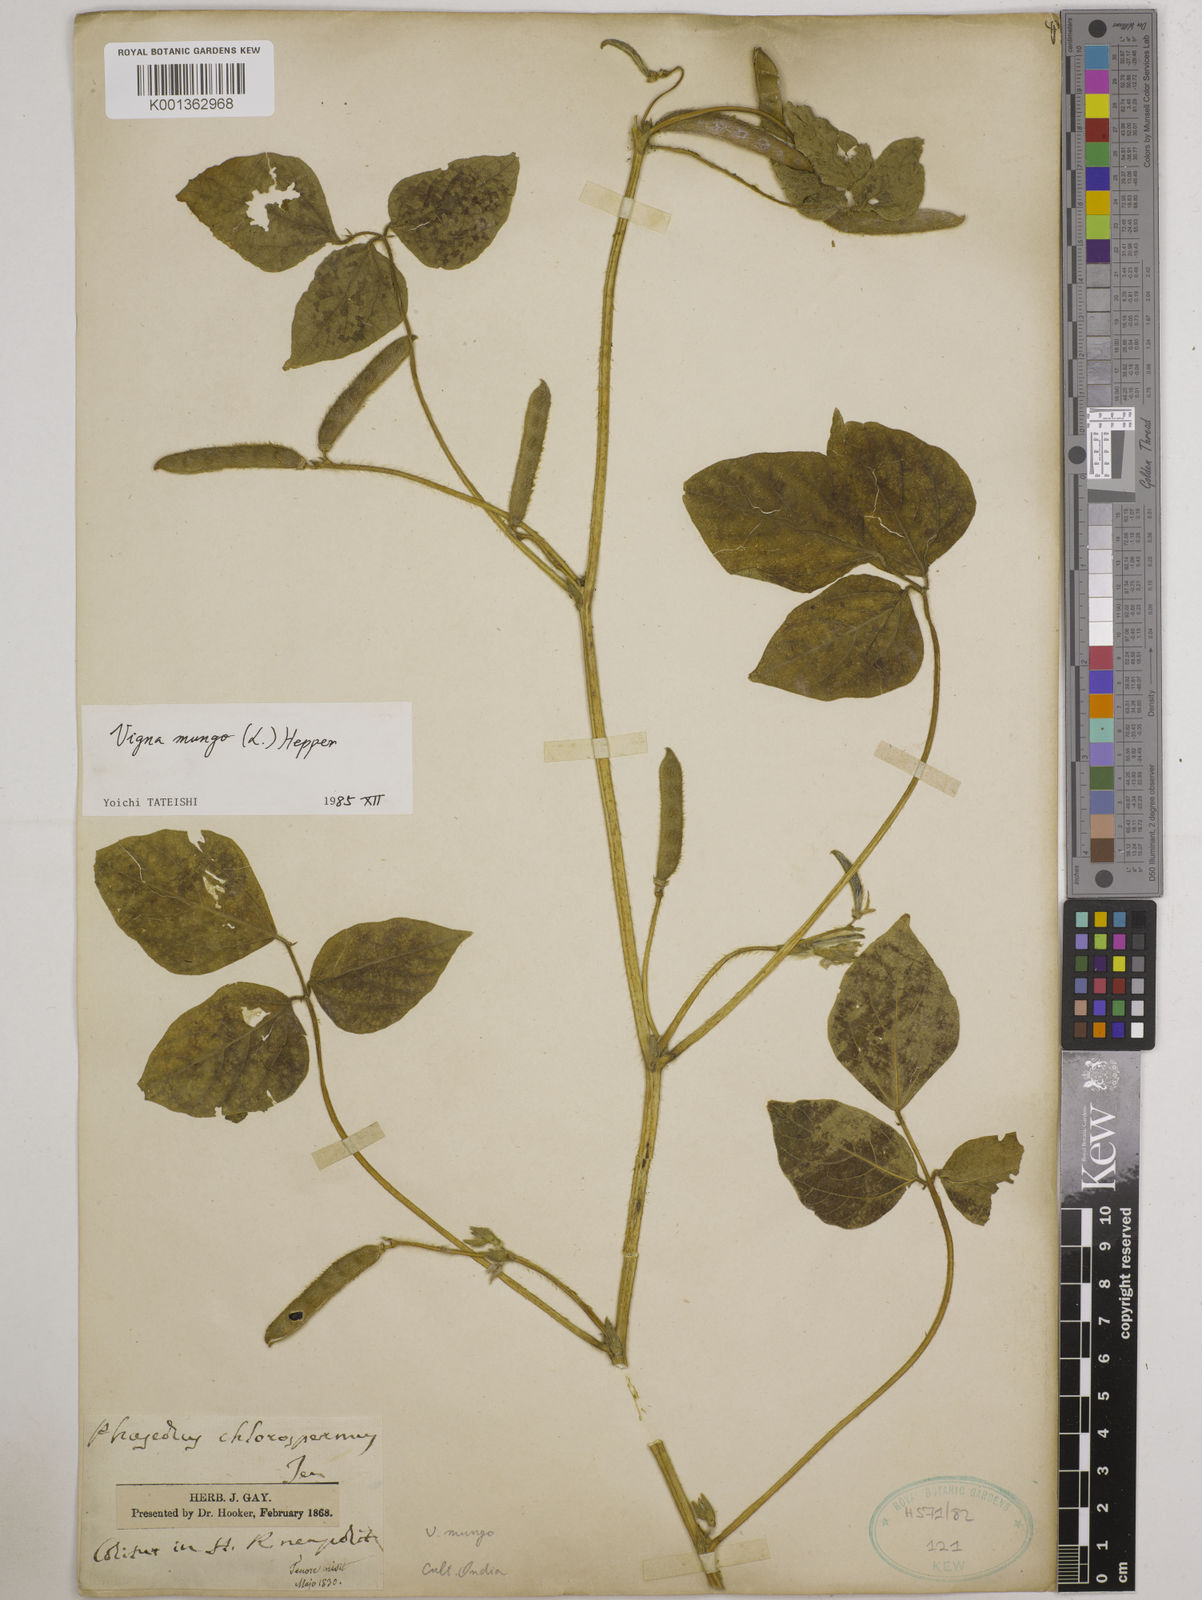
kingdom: Plantae
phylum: Tracheophyta
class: Magnoliopsida
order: Fabales
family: Fabaceae
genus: Vigna
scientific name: Vigna mungo
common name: Black gram
